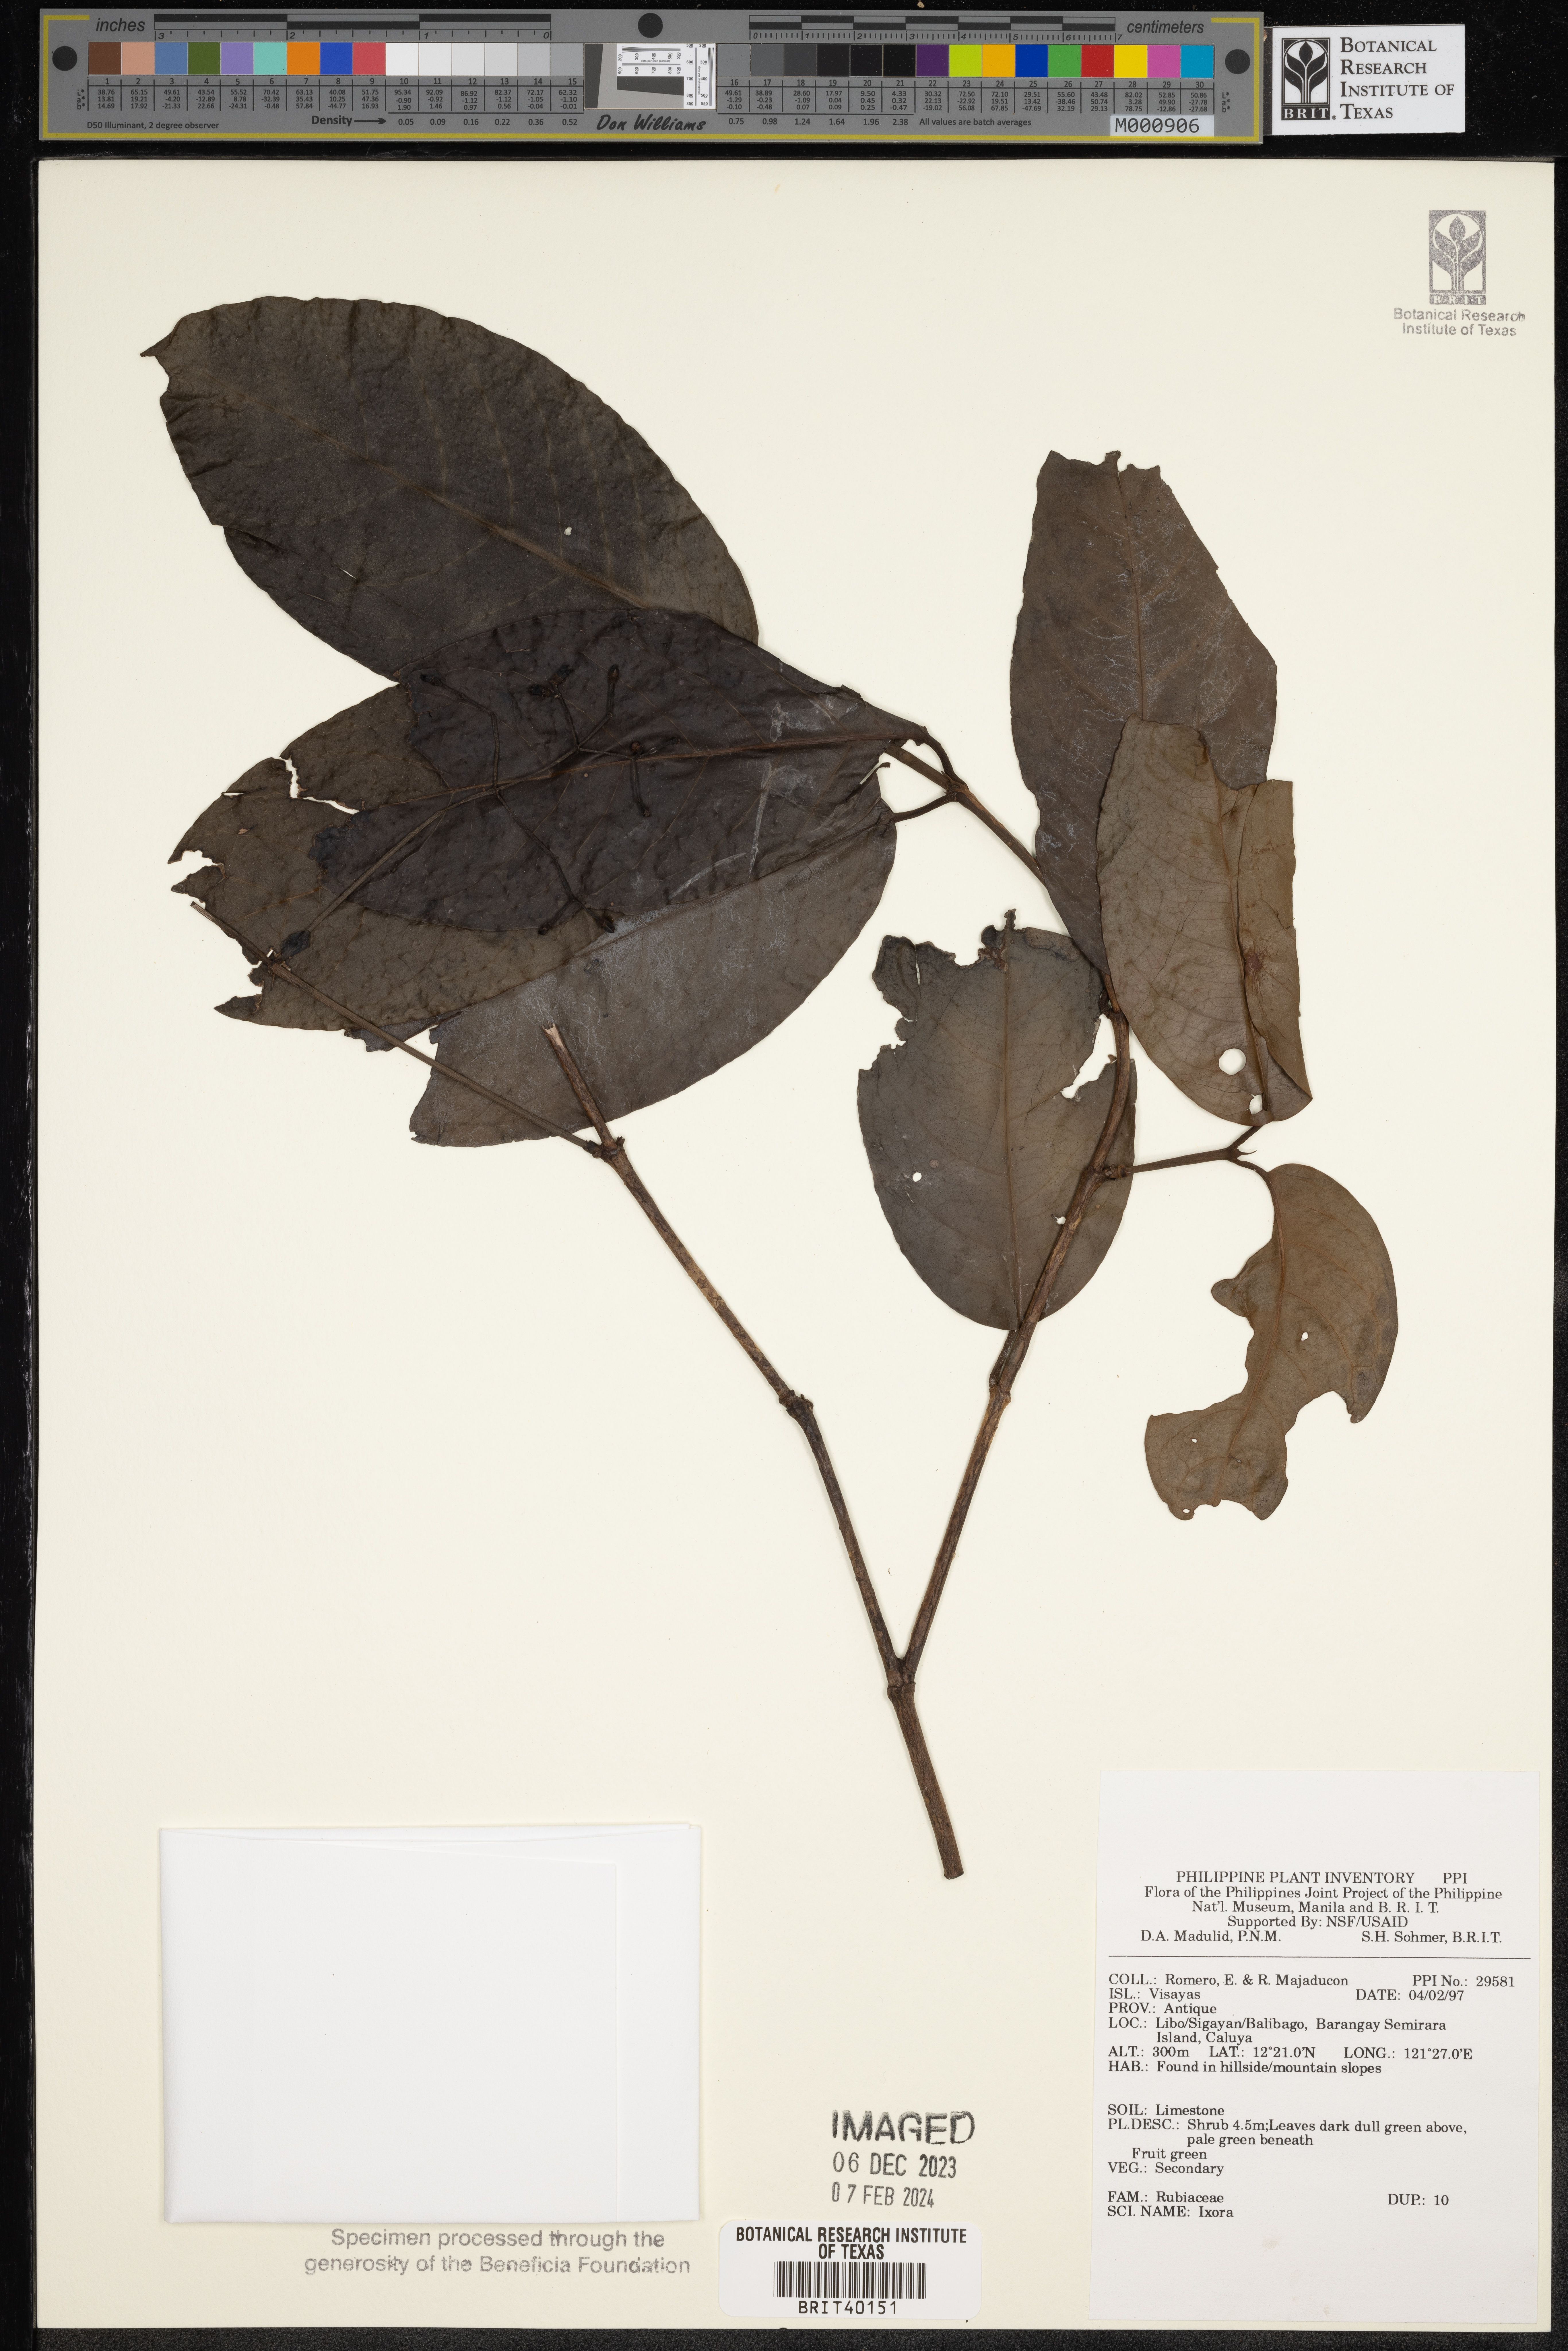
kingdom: Plantae
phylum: Tracheophyta
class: Magnoliopsida
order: Gentianales
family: Rubiaceae
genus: Ixora
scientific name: Ixora
